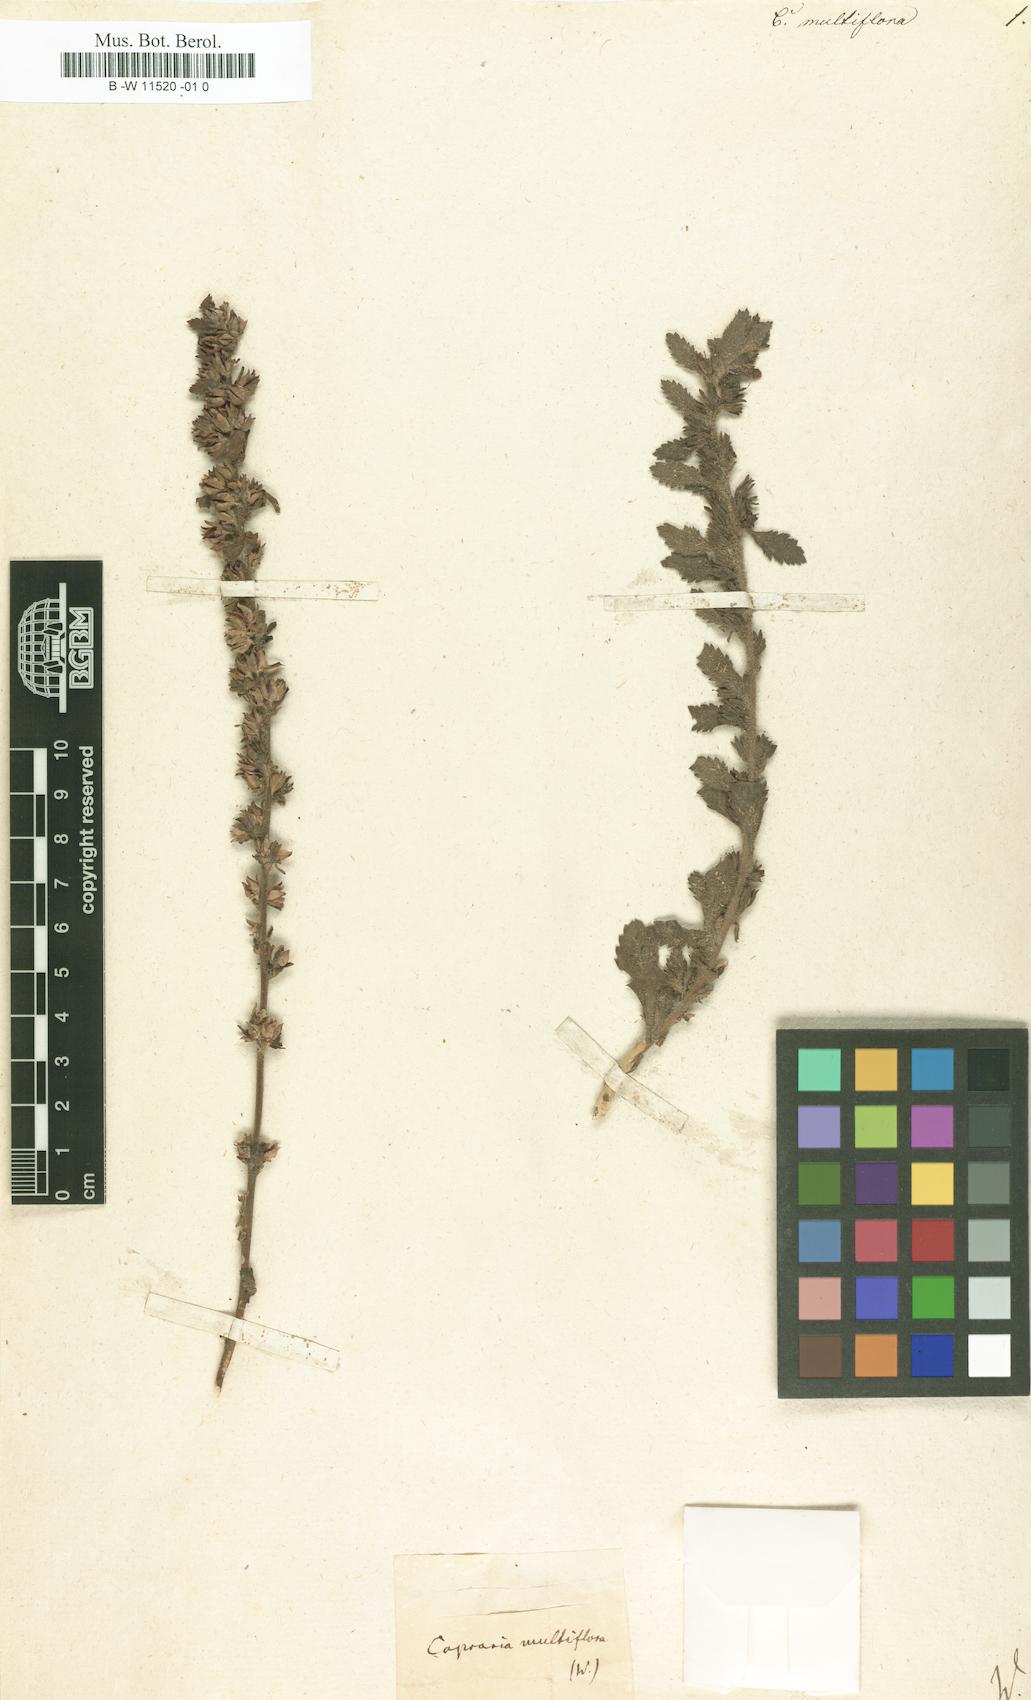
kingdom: Plantae
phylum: Tracheophyta
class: Magnoliopsida
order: Lamiales
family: Plantaginaceae
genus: Leucospora
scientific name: Leucospora multifida
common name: Narrow-leaf paleseed
